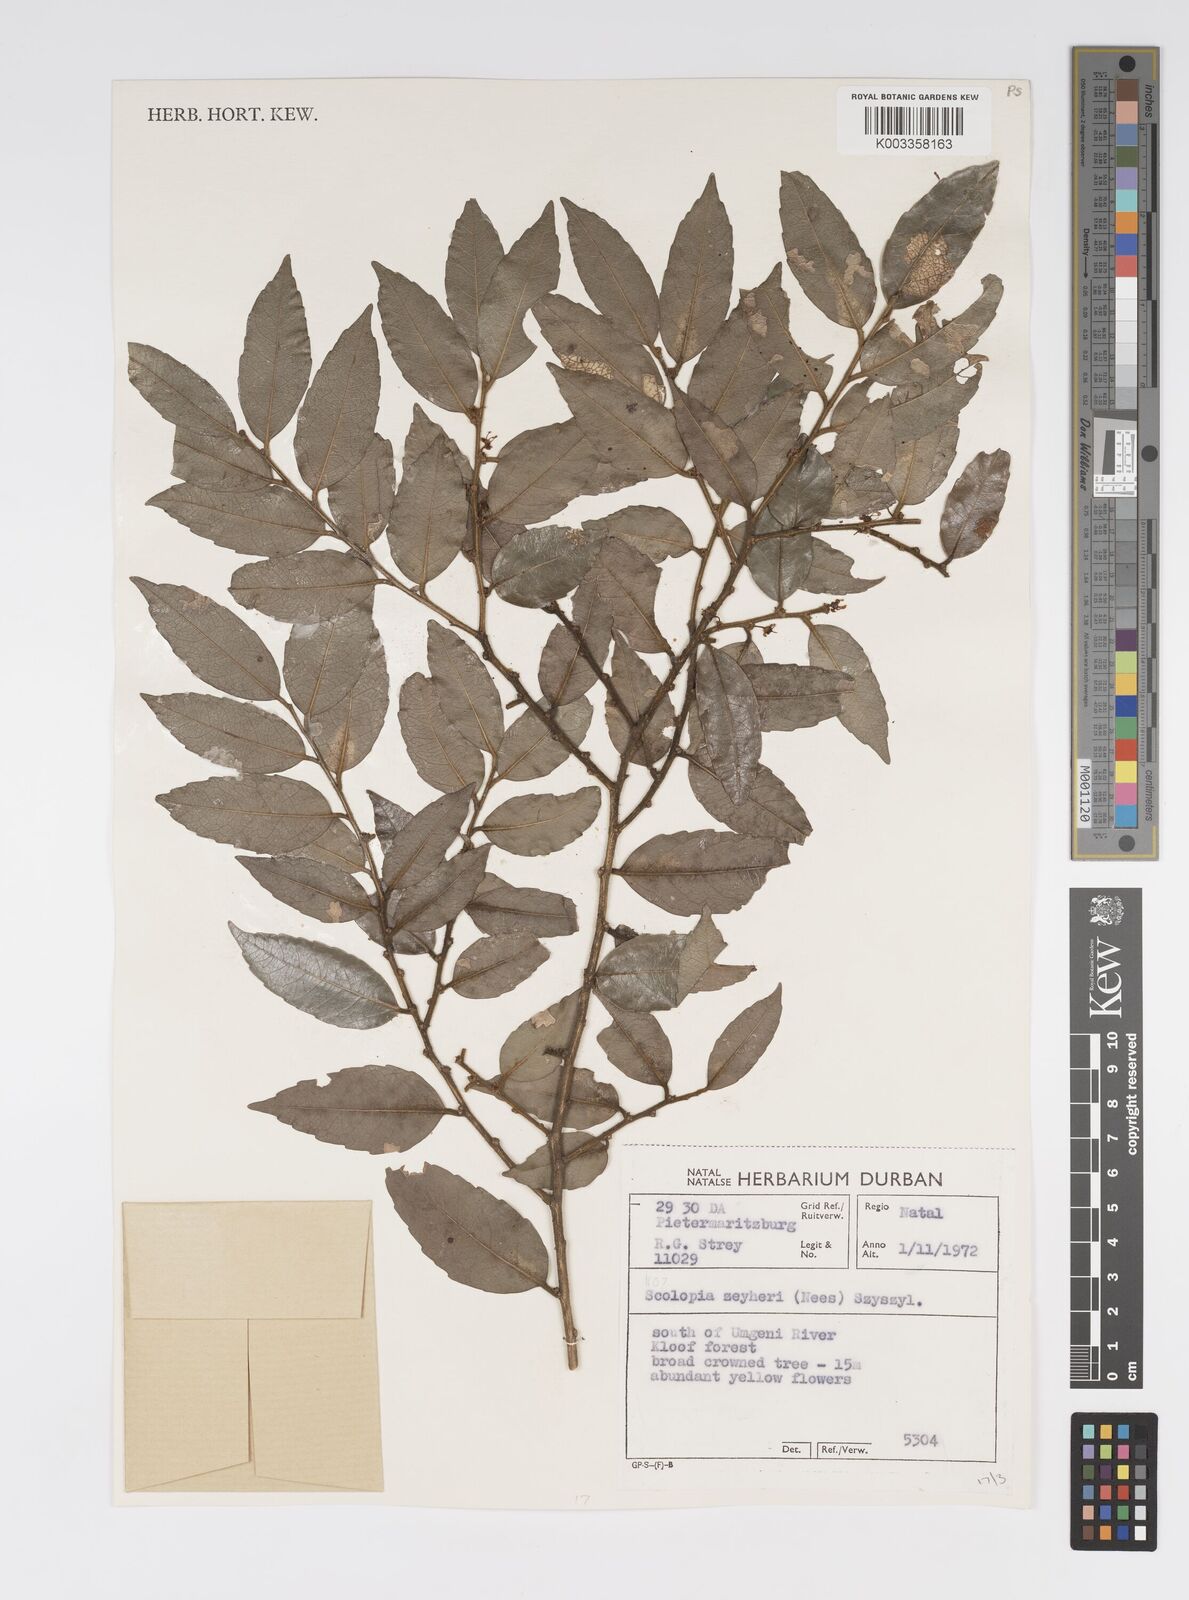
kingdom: Plantae
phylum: Tracheophyta
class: Magnoliopsida
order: Malpighiales
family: Salicaceae
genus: Scolopia
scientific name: Scolopia zeyheri
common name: Thorn pear
